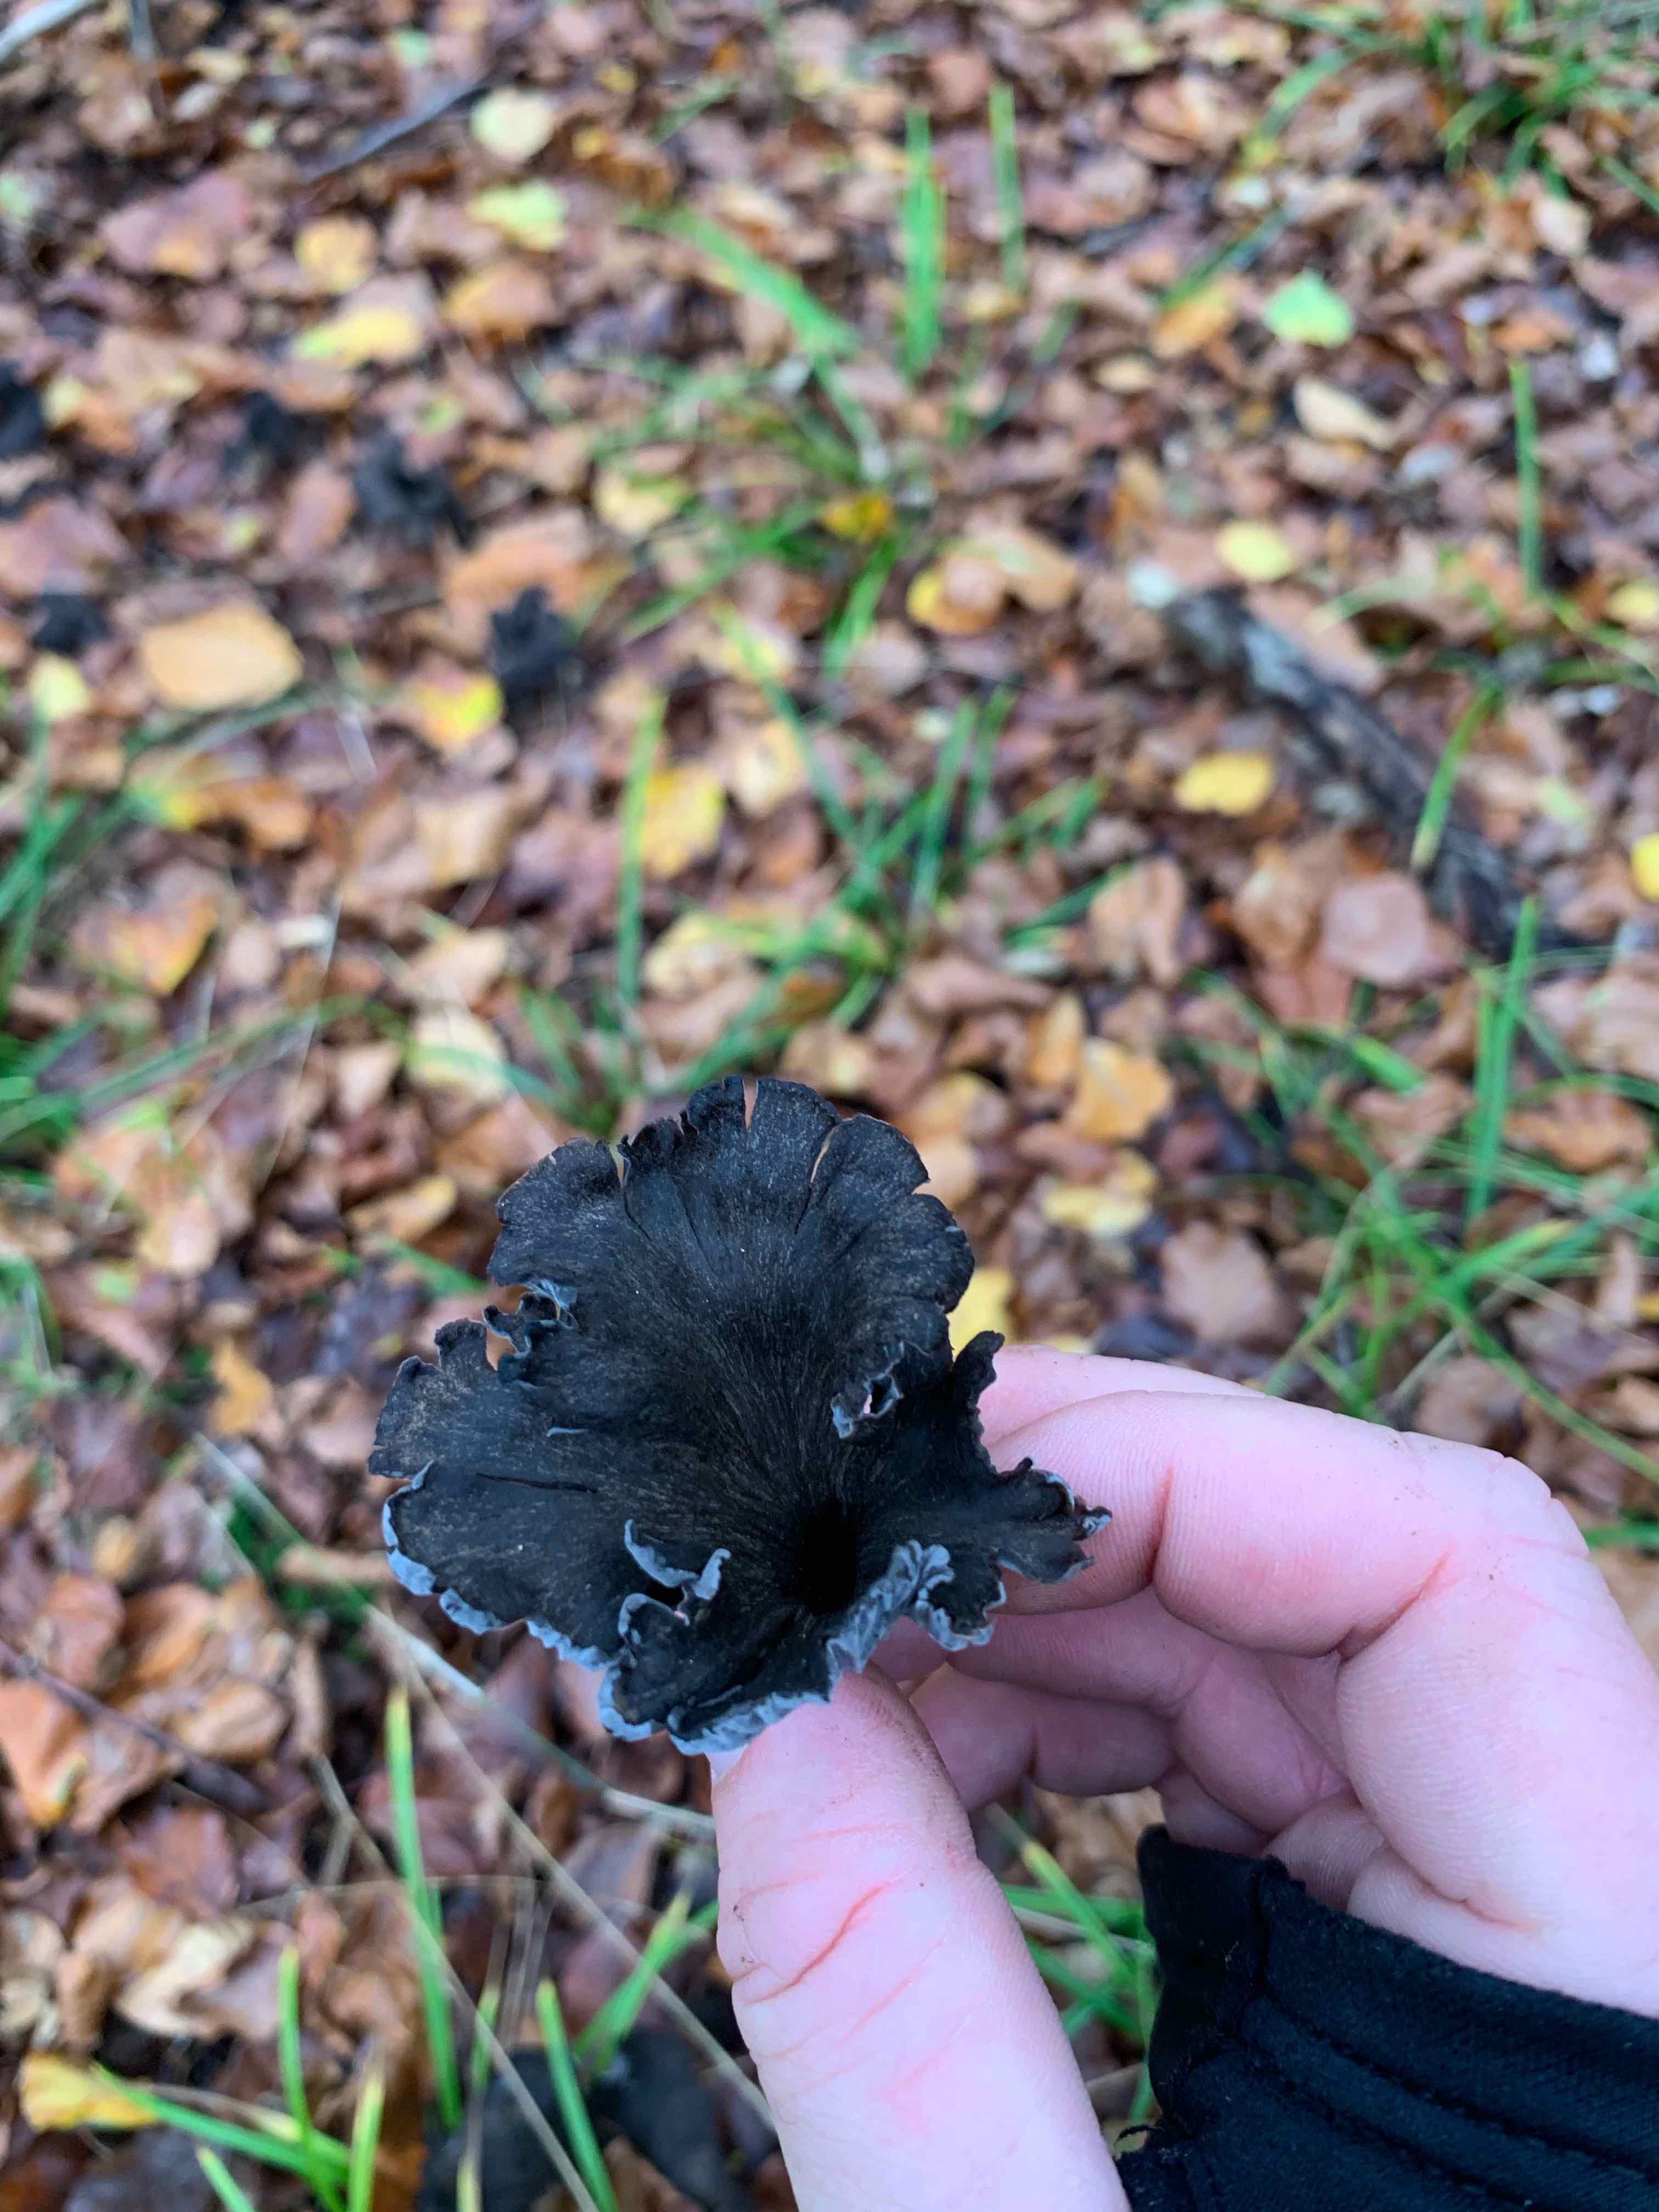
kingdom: Fungi
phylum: Basidiomycota
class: Agaricomycetes
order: Cantharellales
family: Hydnaceae
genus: Cantharellus
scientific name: Cantharellus cinereus
